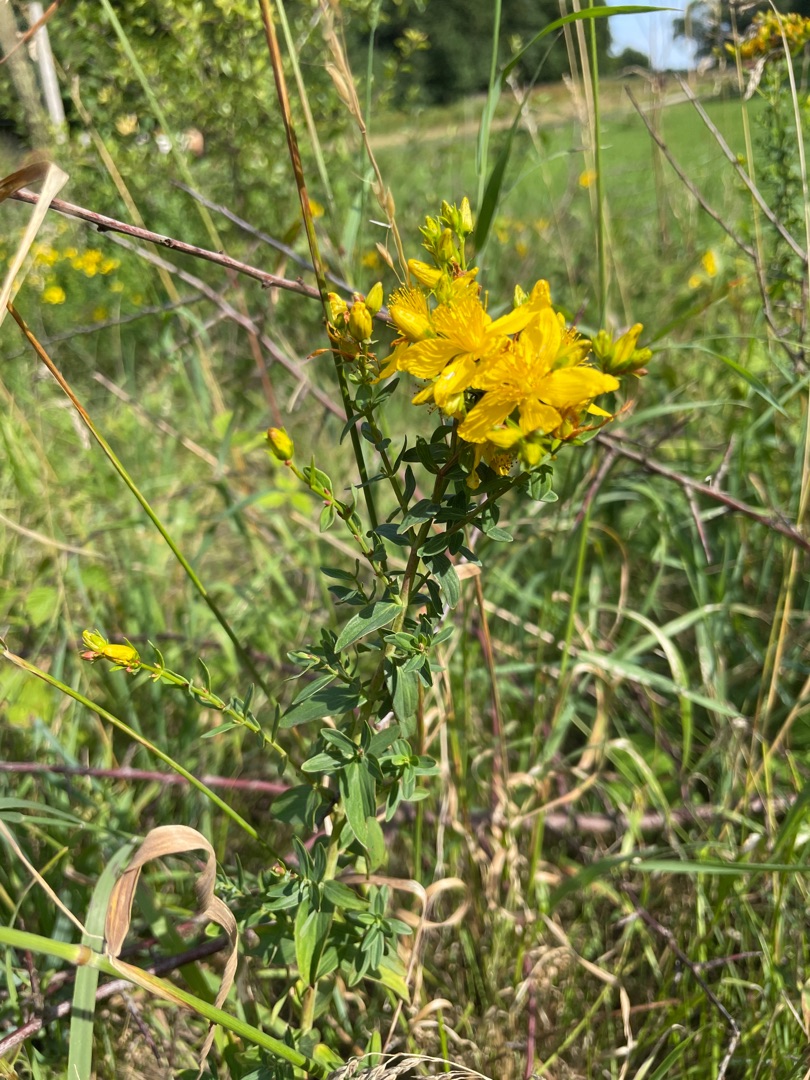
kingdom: Plantae
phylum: Tracheophyta
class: Magnoliopsida
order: Malpighiales
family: Hypericaceae
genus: Hypericum
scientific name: Hypericum perforatum
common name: Prikbladet perikon
